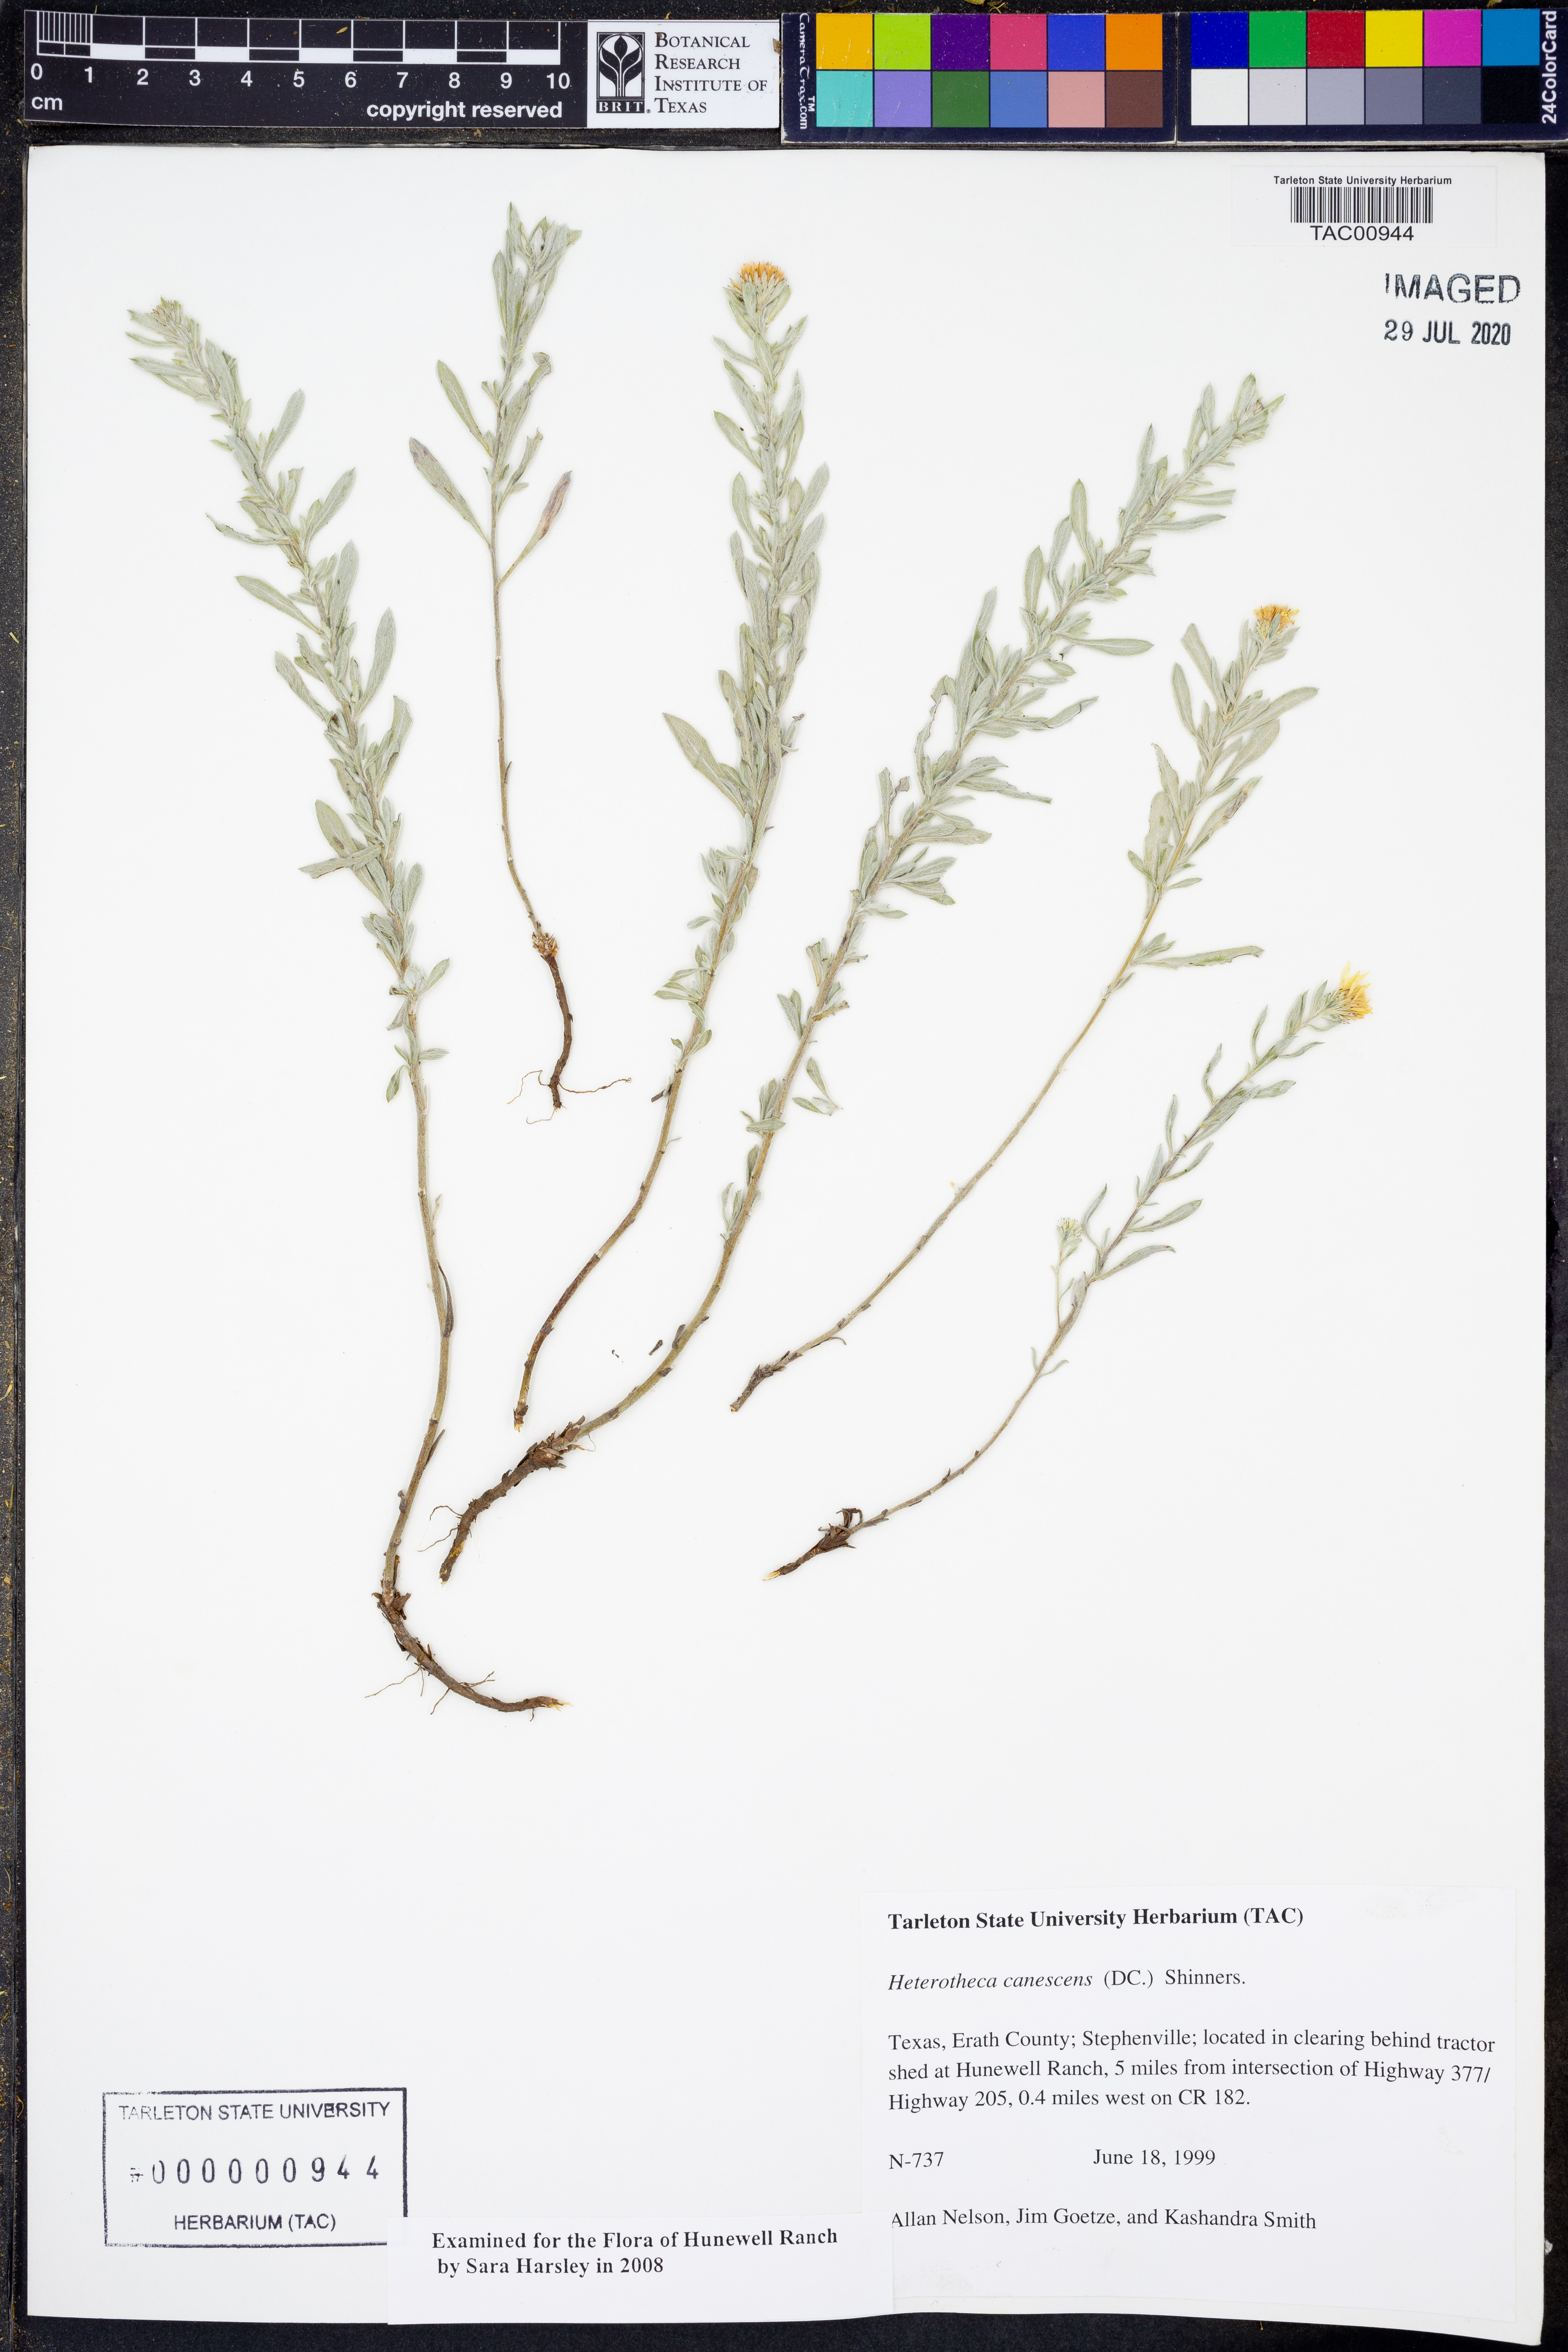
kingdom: Plantae
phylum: Tracheophyta
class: Magnoliopsida
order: Asterales
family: Asteraceae
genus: Heterotheca
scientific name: Heterotheca canescens
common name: Hoary golden-aster
